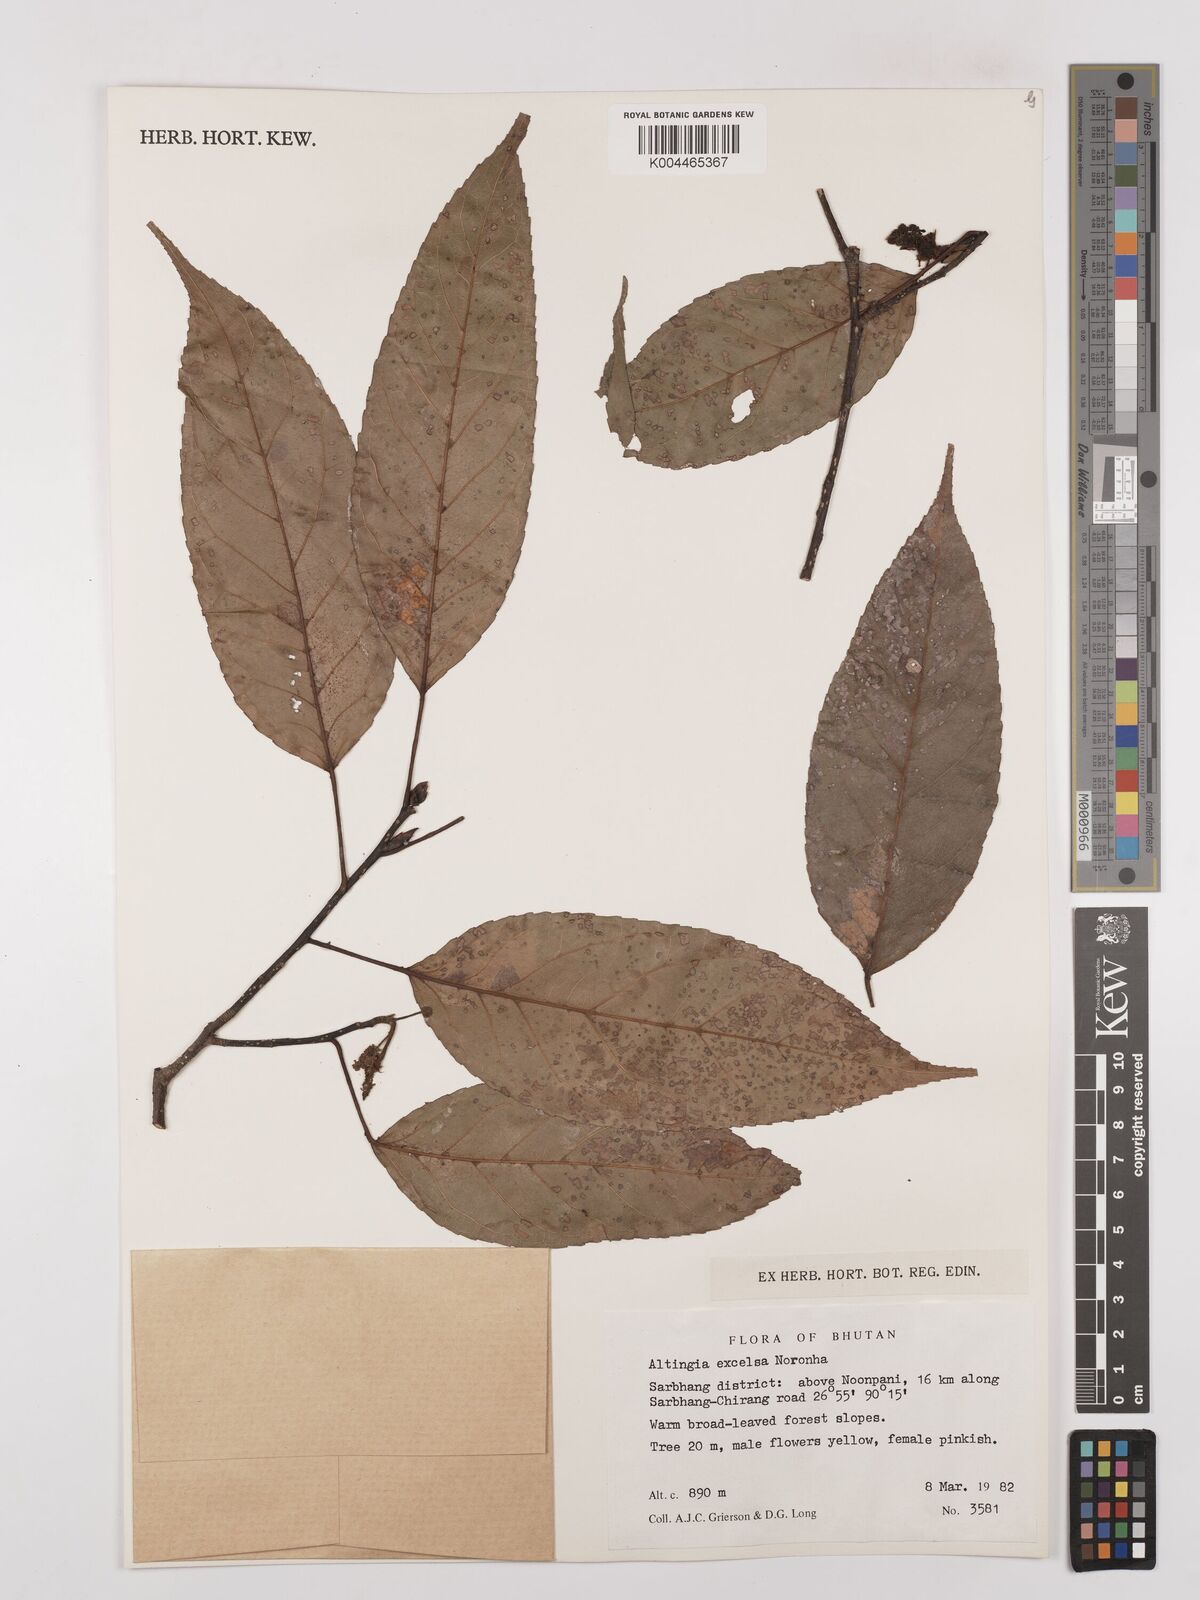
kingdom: Plantae
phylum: Tracheophyta
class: Magnoliopsida
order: Saxifragales
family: Altingiaceae
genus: Liquidambar
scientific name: Liquidambar excelsa
